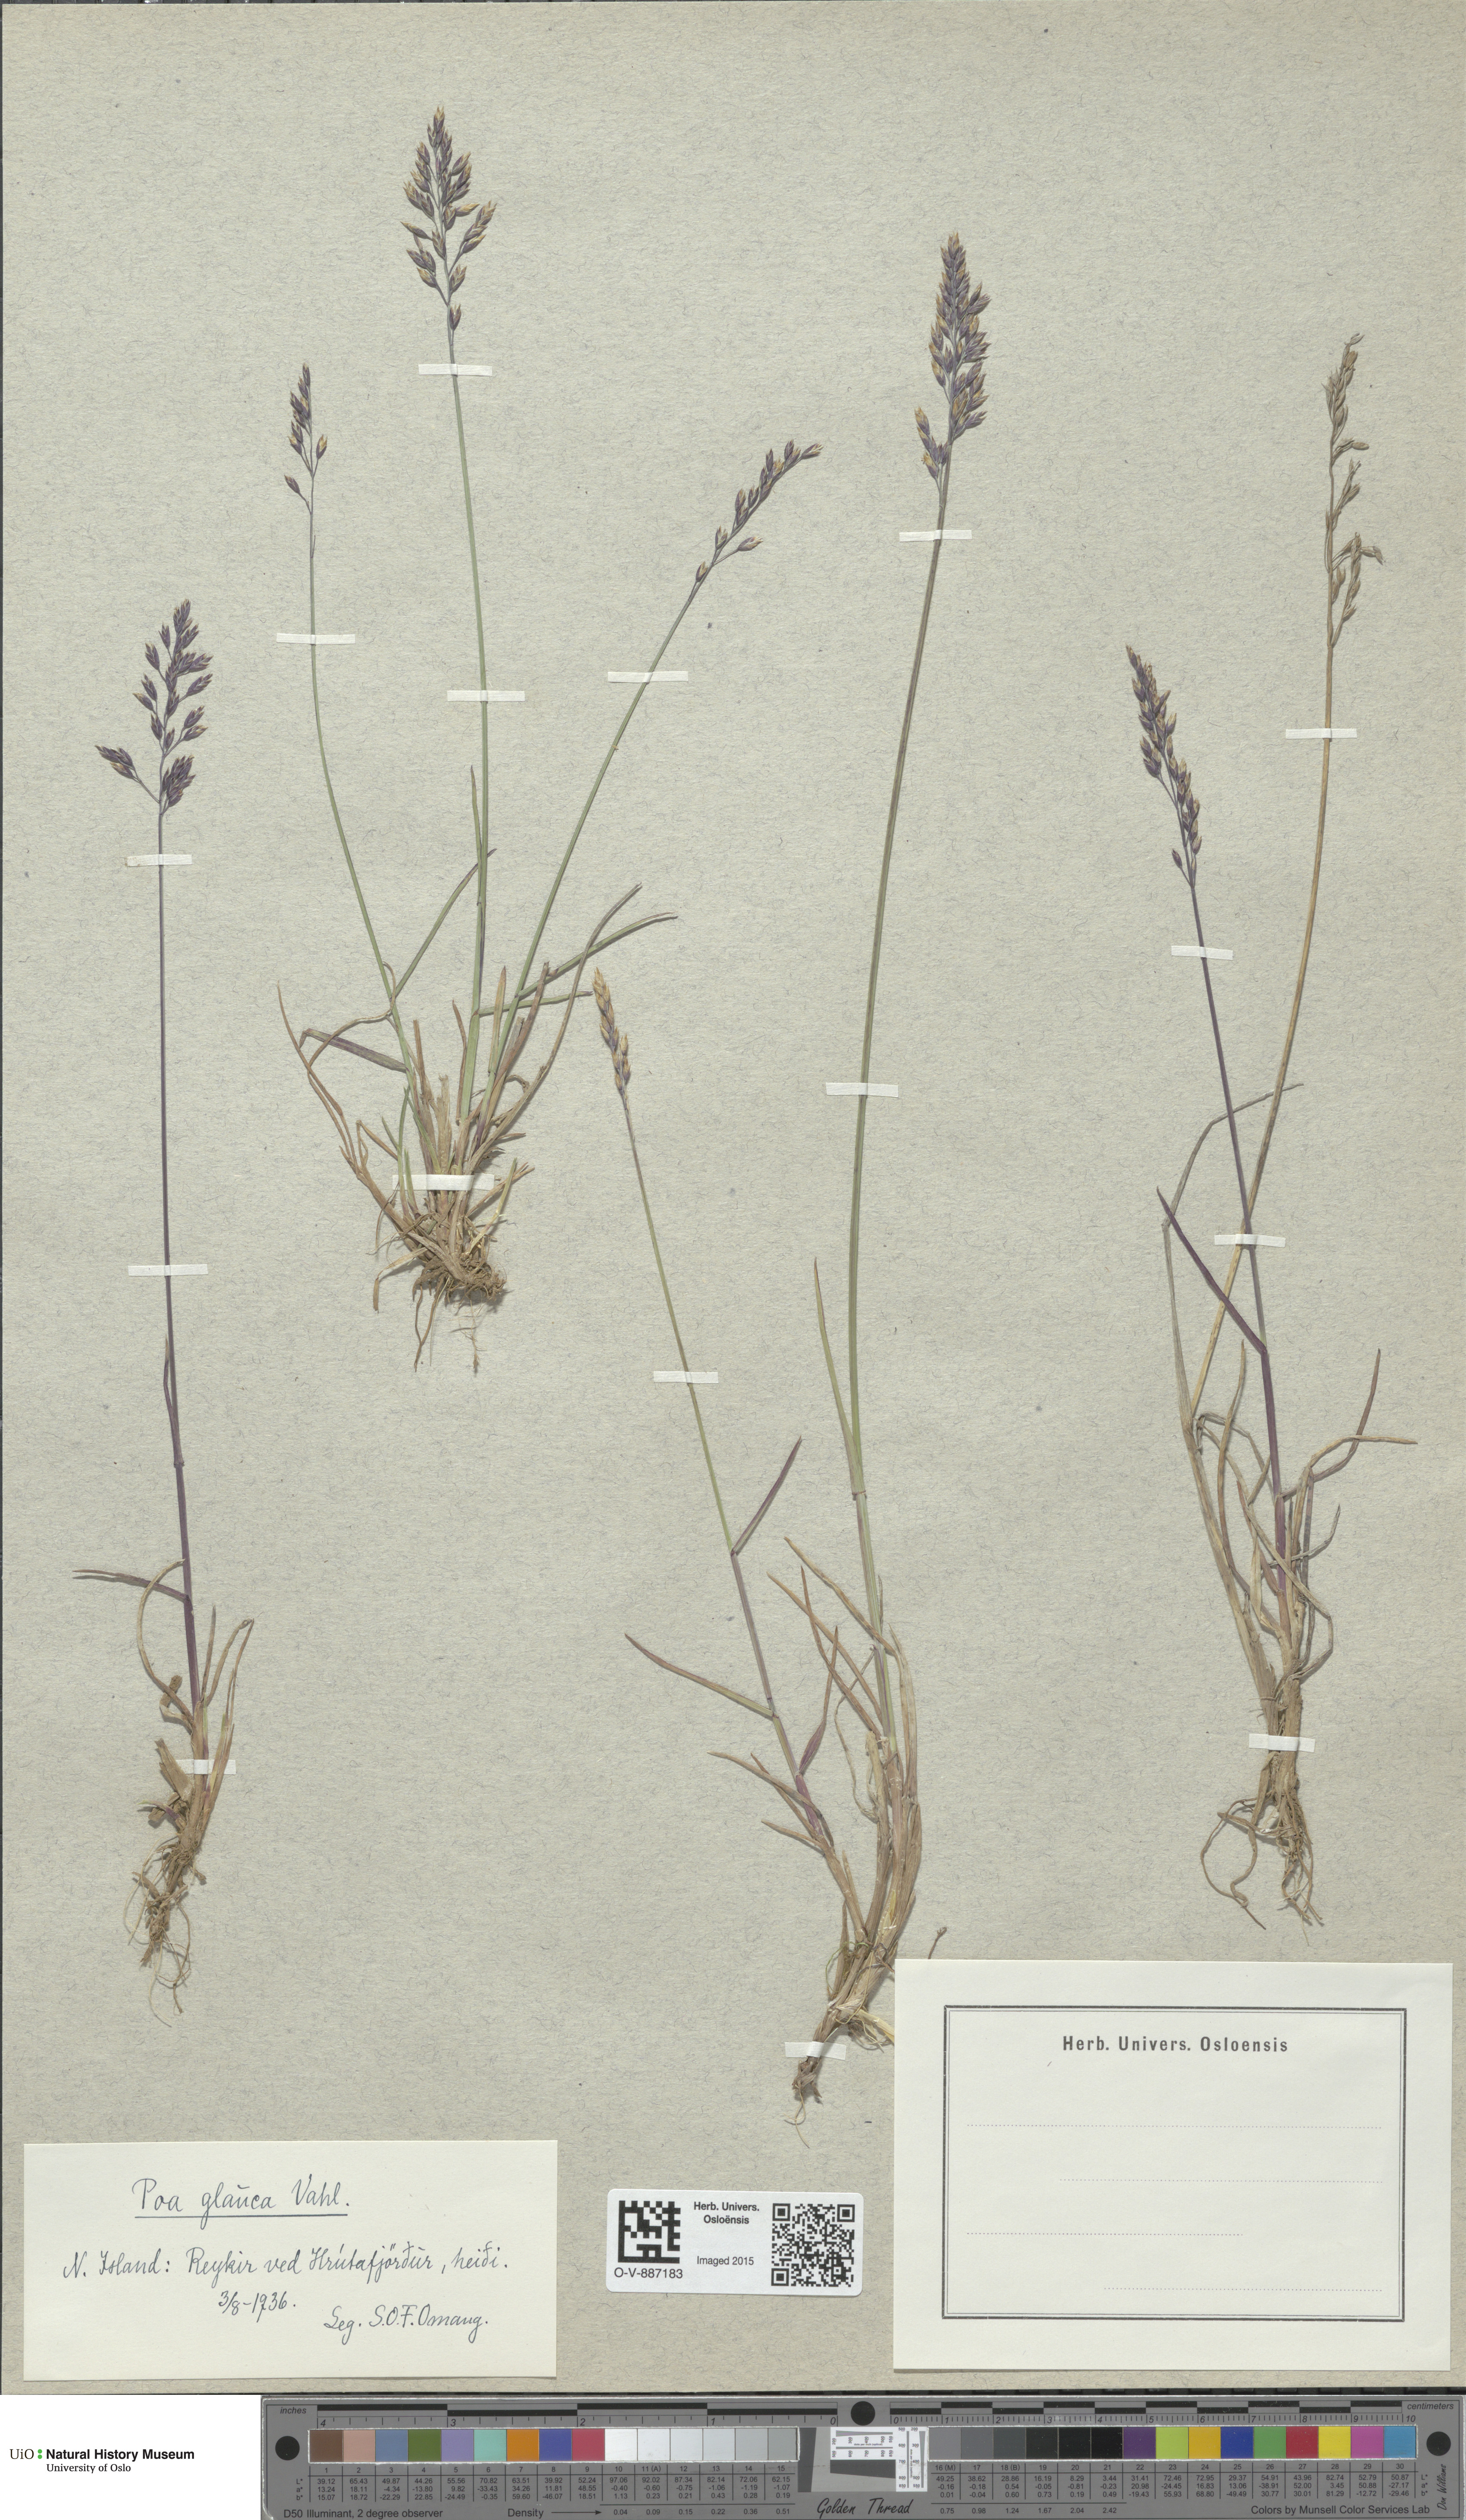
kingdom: Plantae
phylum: Tracheophyta
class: Liliopsida
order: Poales
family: Poaceae
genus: Poa
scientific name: Poa glauca
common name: Glaucous bluegrass
